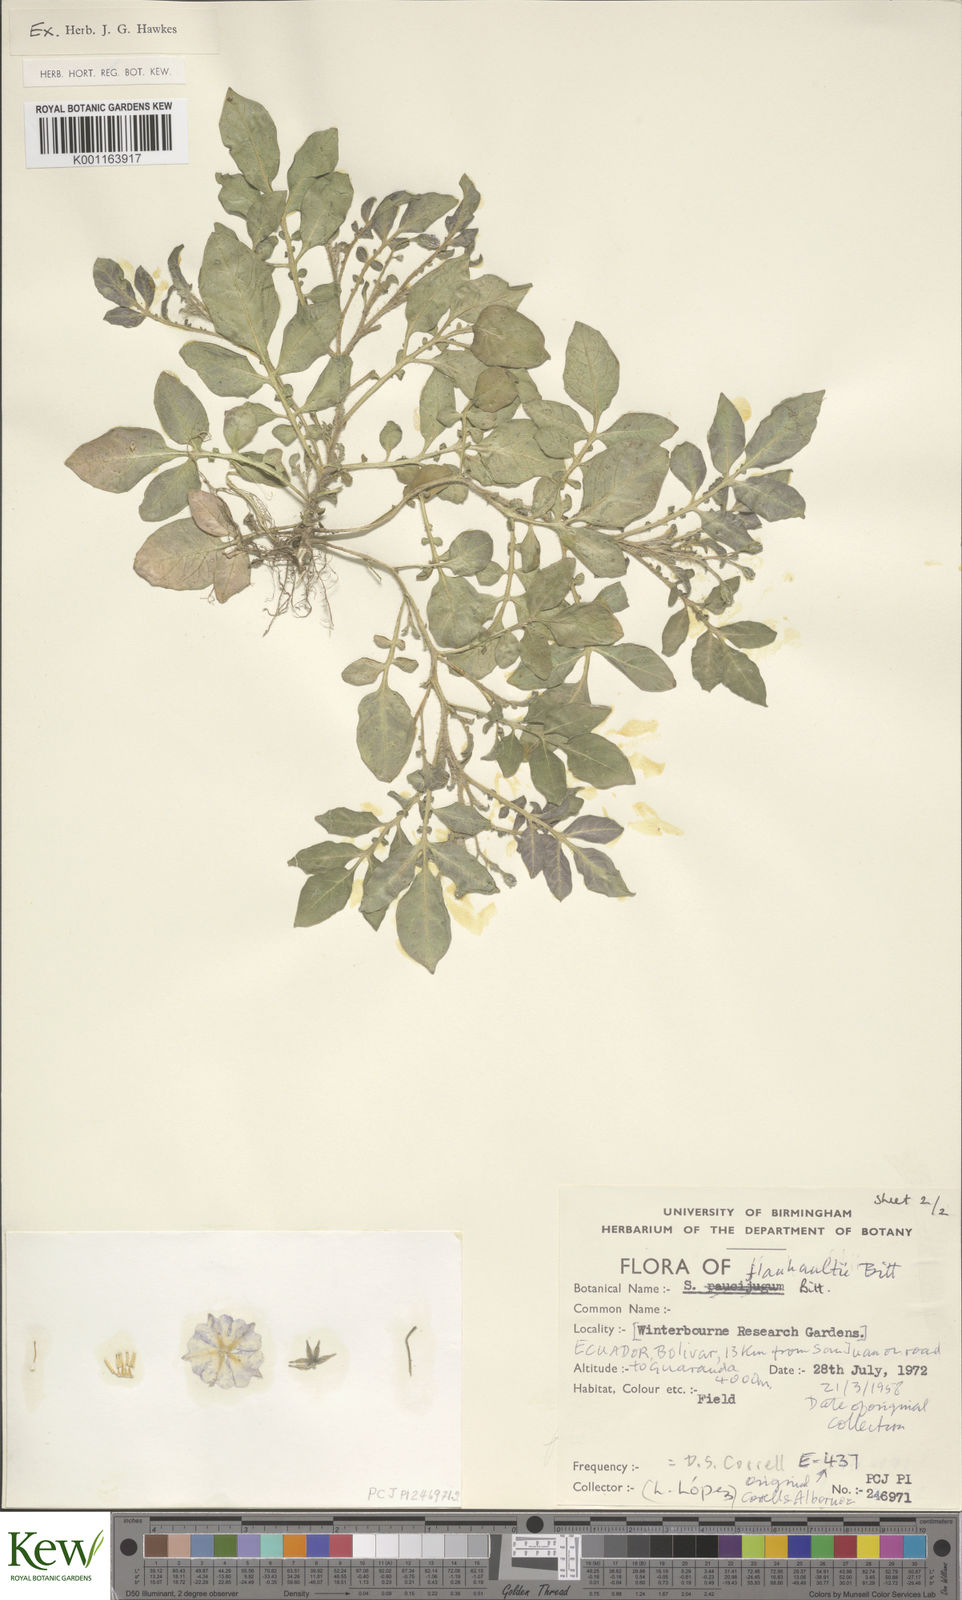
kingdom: Plantae
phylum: Tracheophyta
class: Magnoliopsida
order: Solanales
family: Solanaceae
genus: Solanum
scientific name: Solanum flahaultii
